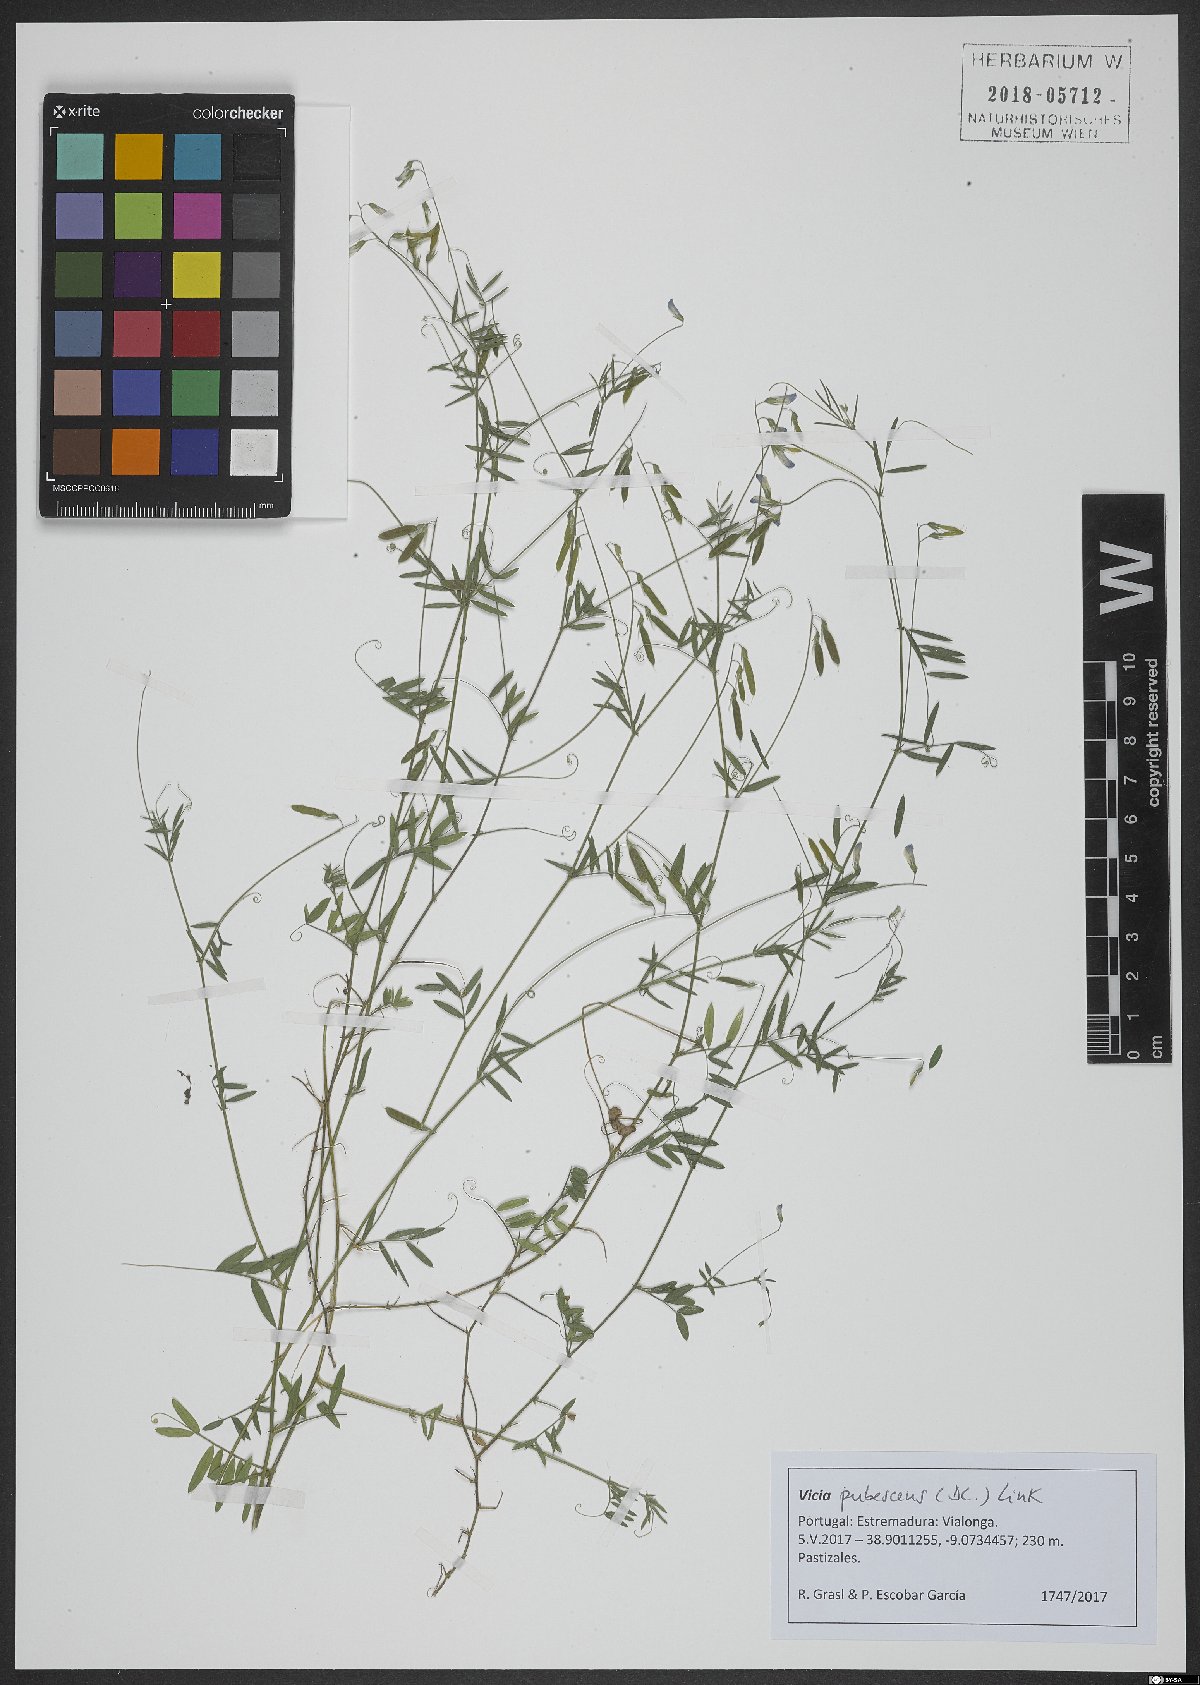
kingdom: Plantae
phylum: Tracheophyta
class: Magnoliopsida
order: Fabales
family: Fabaceae
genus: Vicia
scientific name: Vicia pubescens
